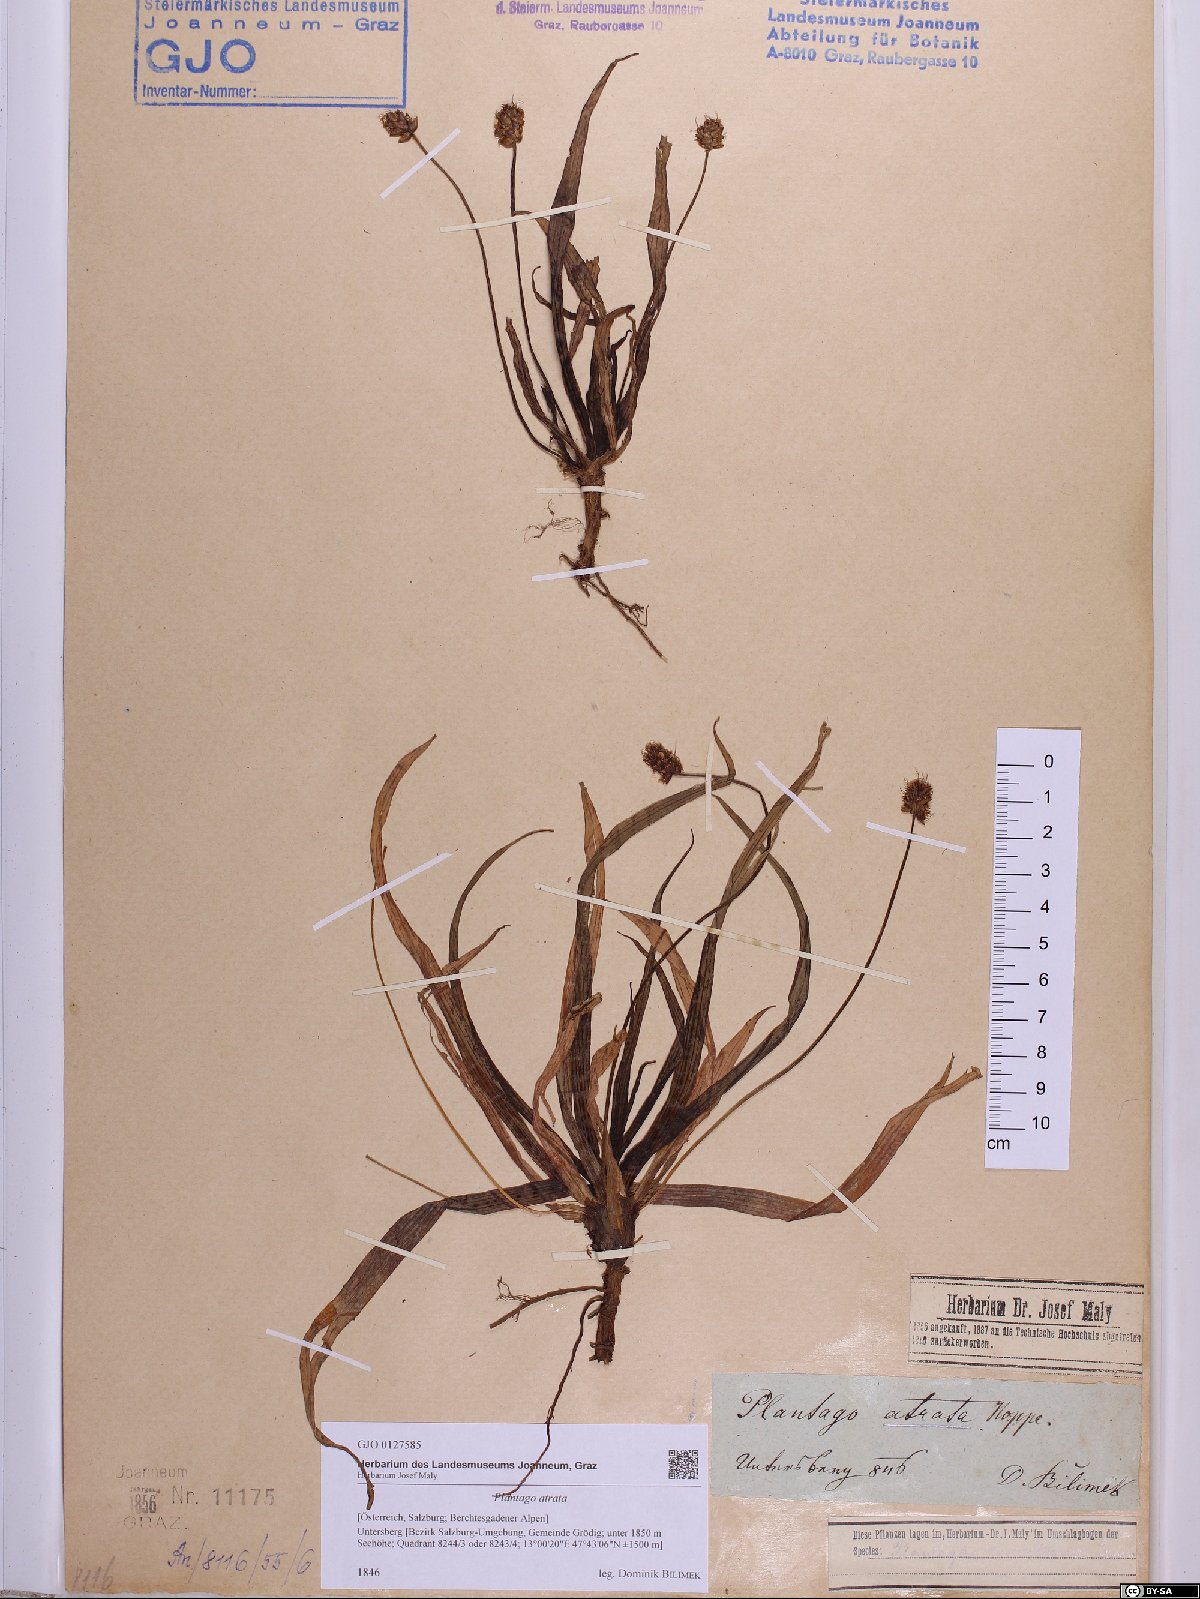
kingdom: Plantae
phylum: Tracheophyta
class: Magnoliopsida
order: Lamiales
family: Plantaginaceae
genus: Plantago
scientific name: Plantago atrata
